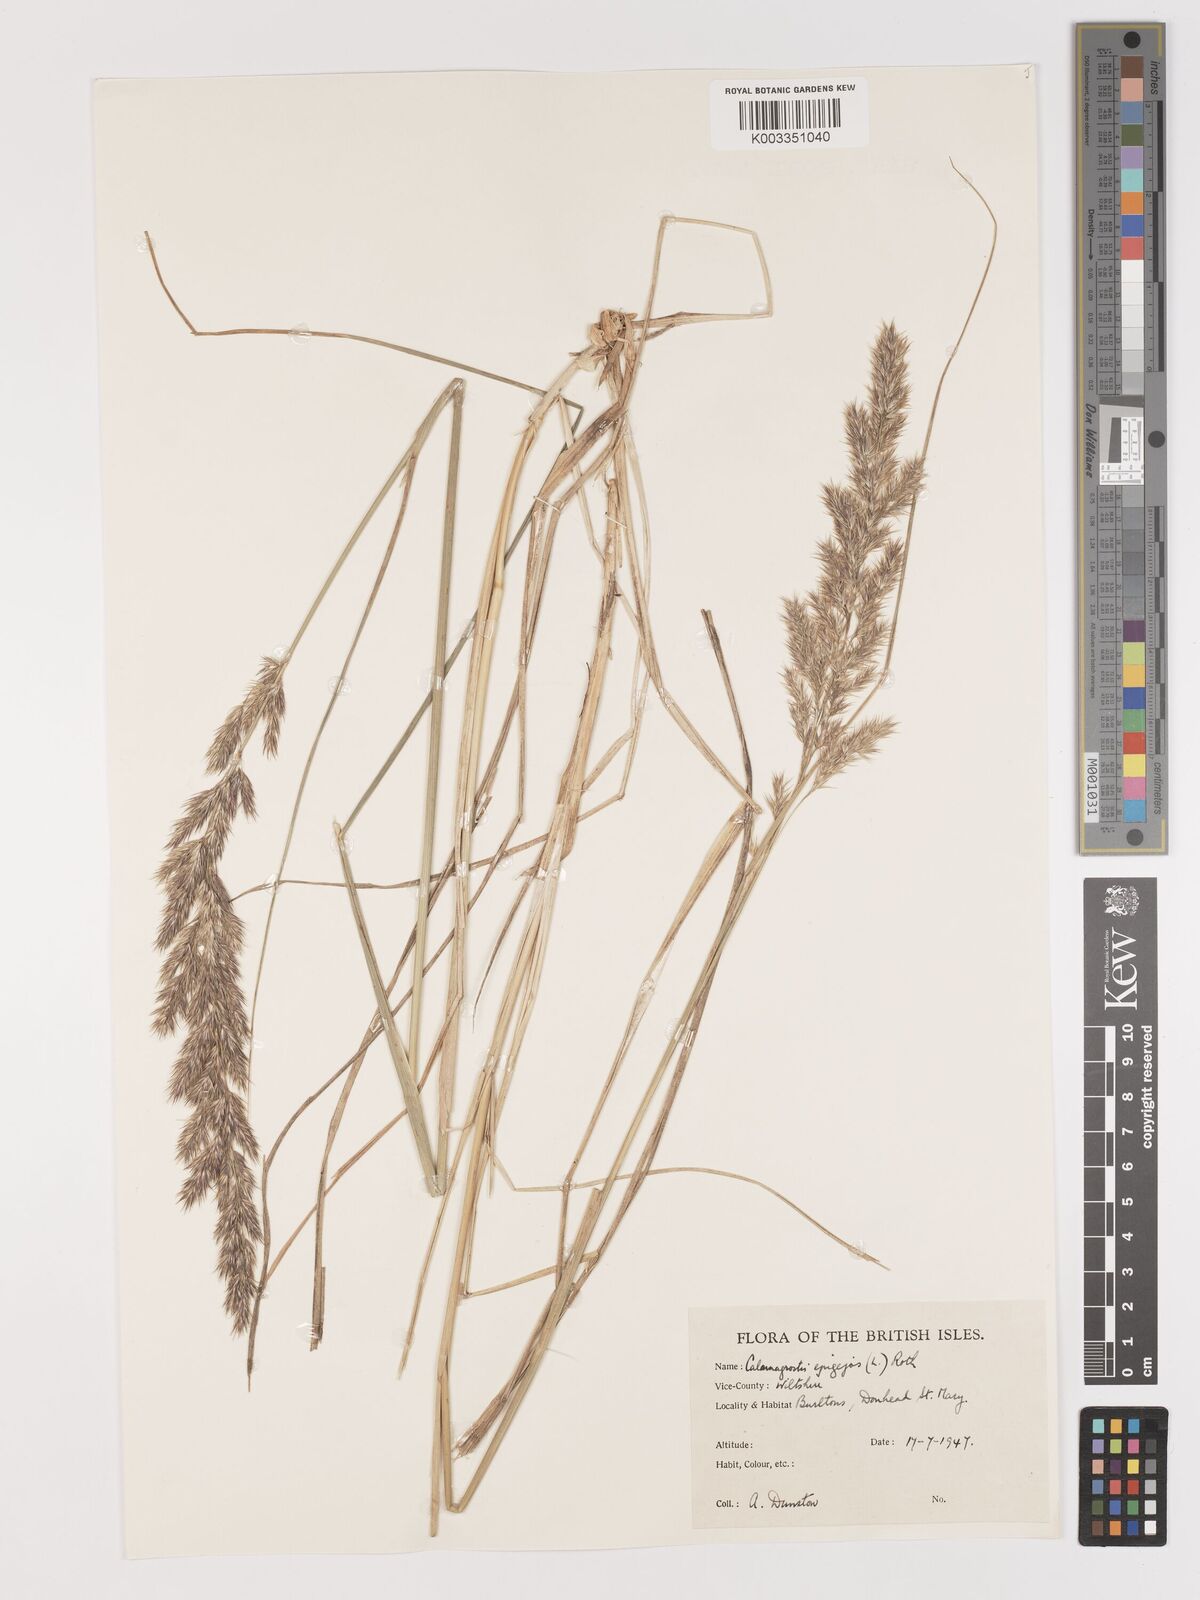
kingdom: Plantae
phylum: Tracheophyta
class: Liliopsida
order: Poales
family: Poaceae
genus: Calamagrostis
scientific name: Calamagrostis epigejos
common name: Wood small-reed
